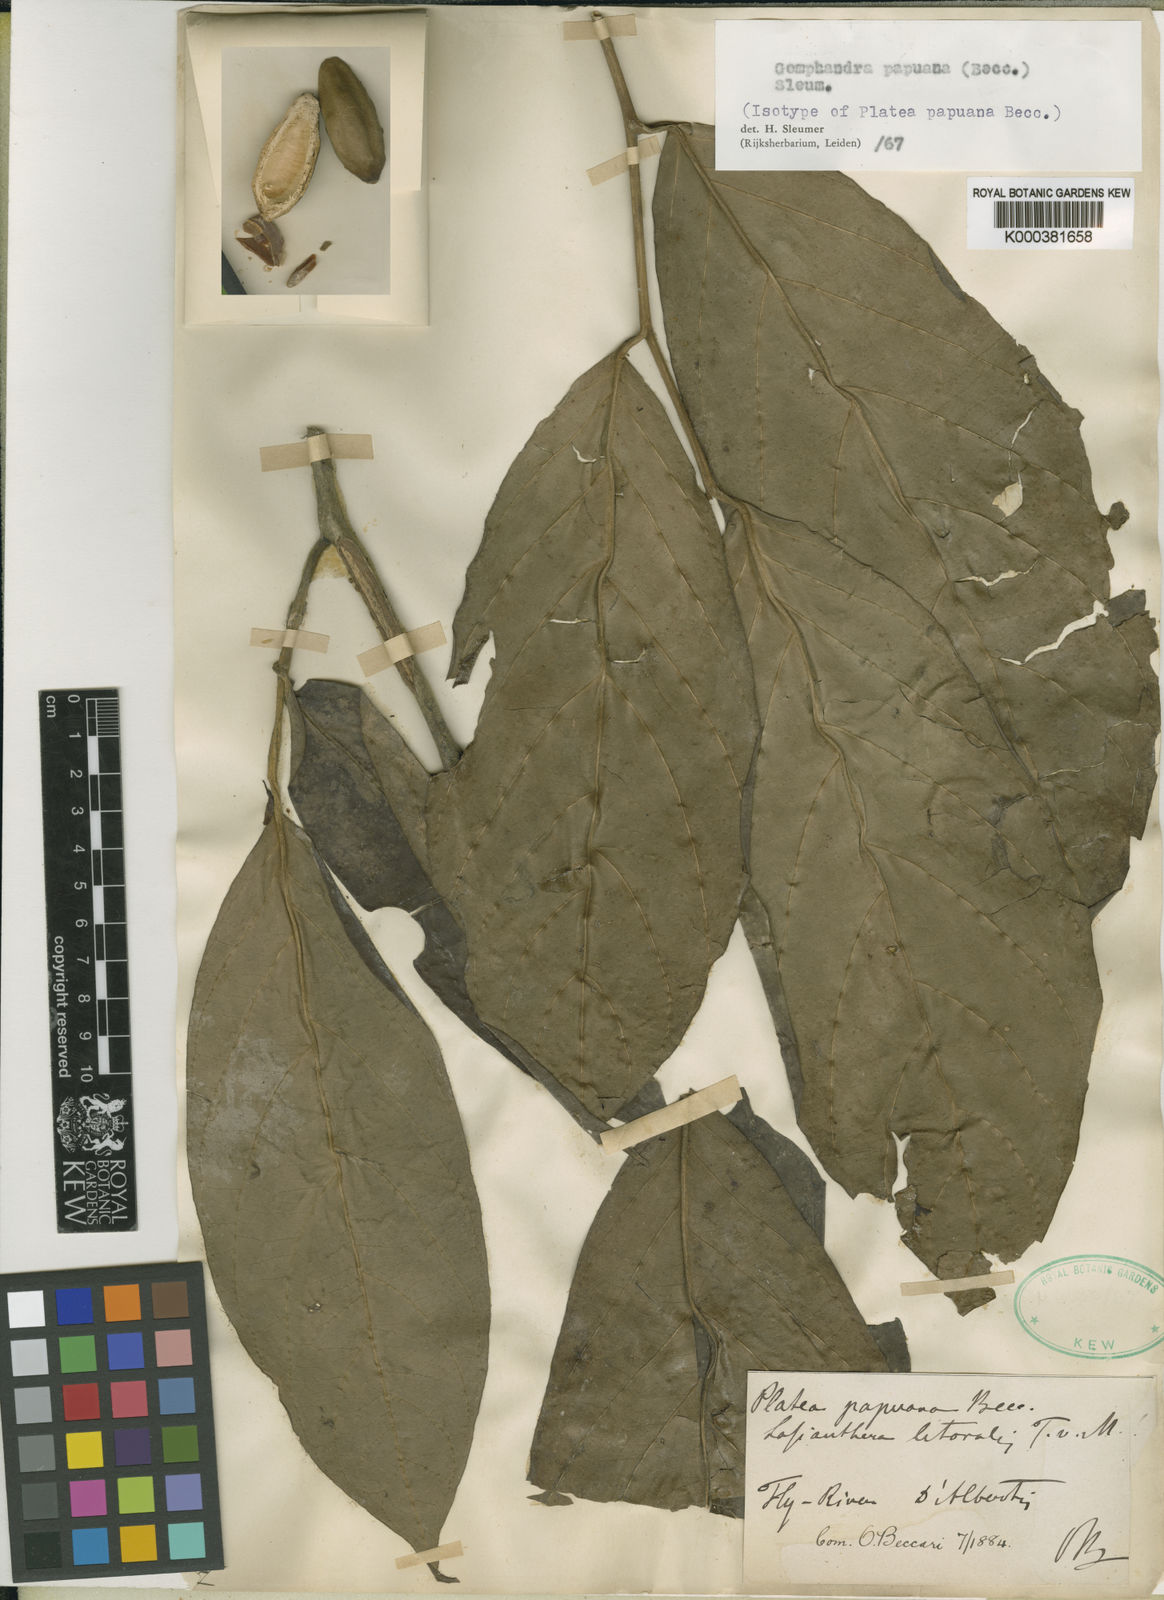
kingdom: Plantae
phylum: Tracheophyta
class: Magnoliopsida
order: Cardiopteridales
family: Stemonuraceae
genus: Gomphandra
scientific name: Gomphandra papuana
